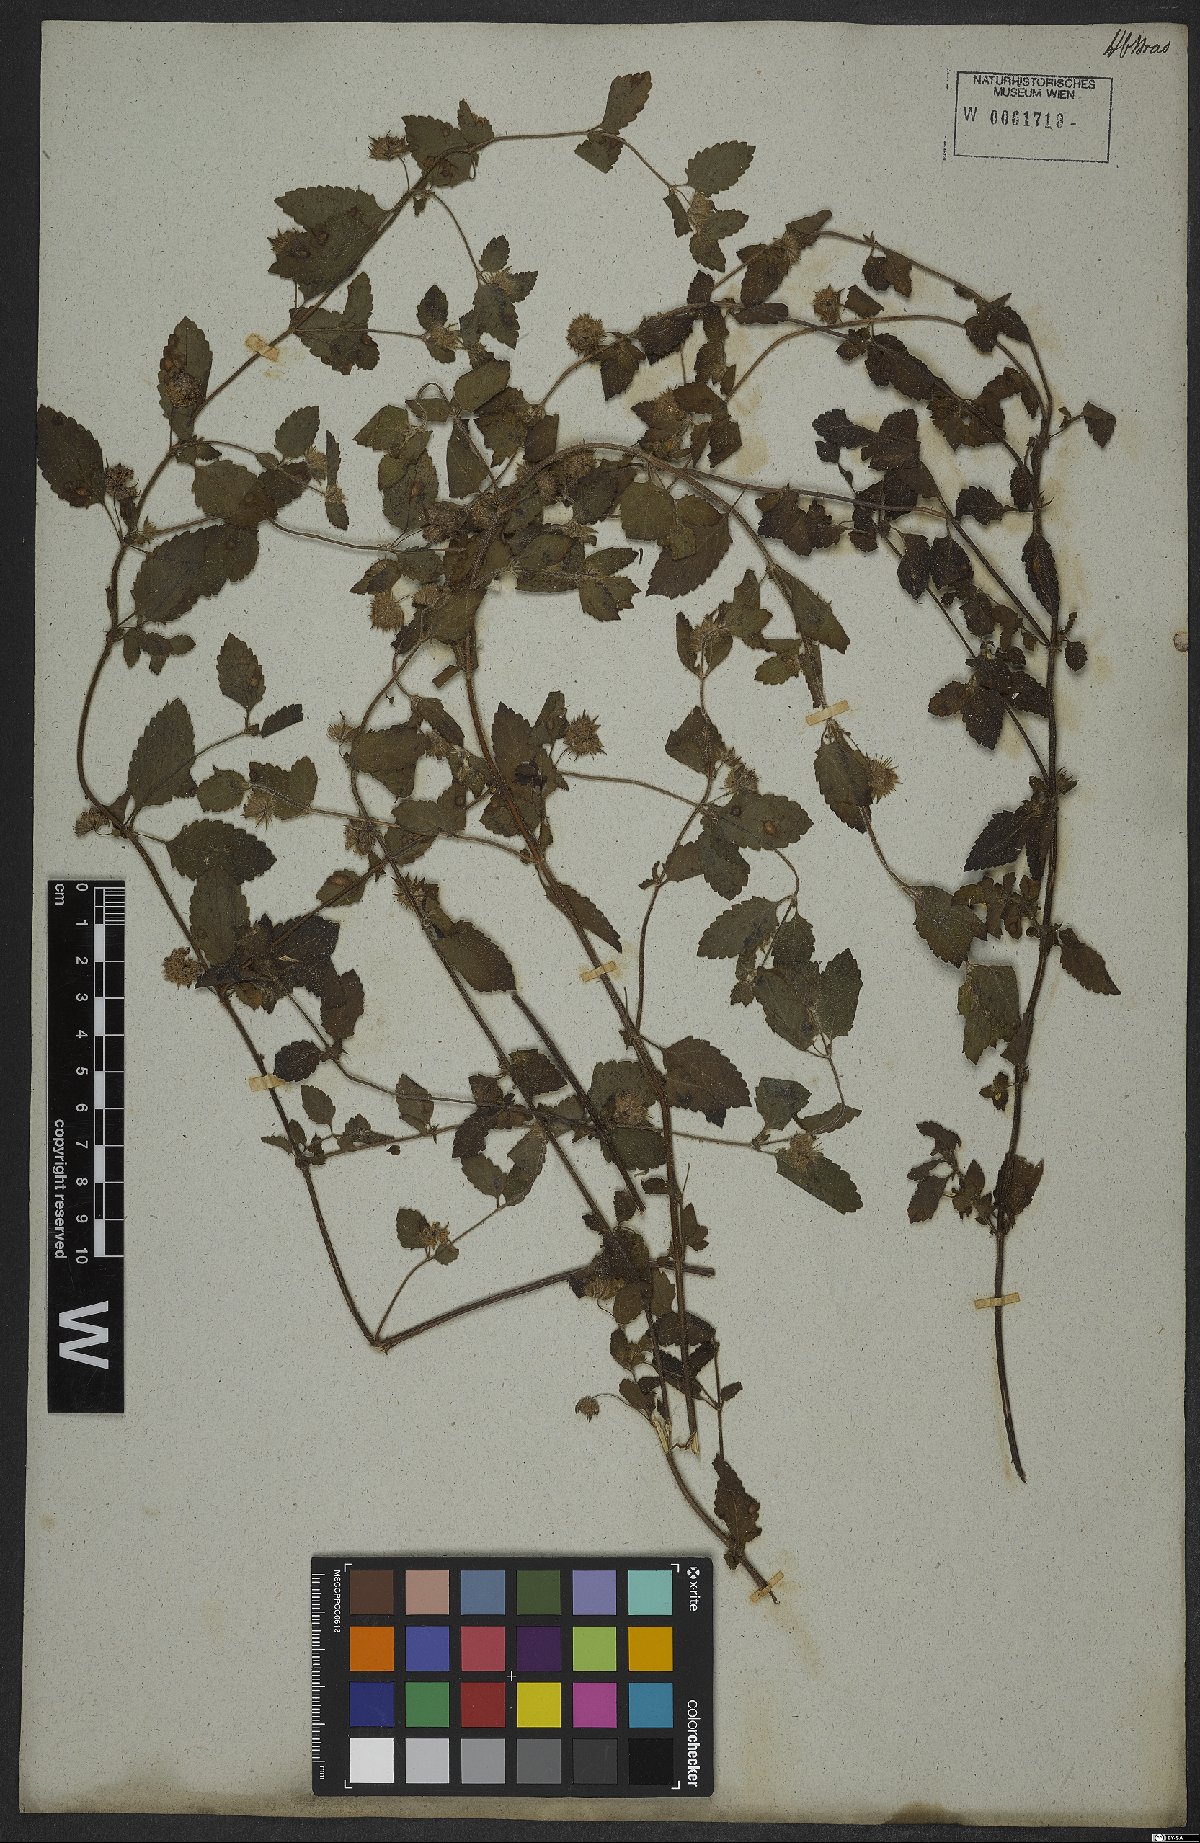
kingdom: Plantae
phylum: Tracheophyta
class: Magnoliopsida
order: Lamiales
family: Lamiaceae
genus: Marsypianthes
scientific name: Marsypianthes chamaedrys
